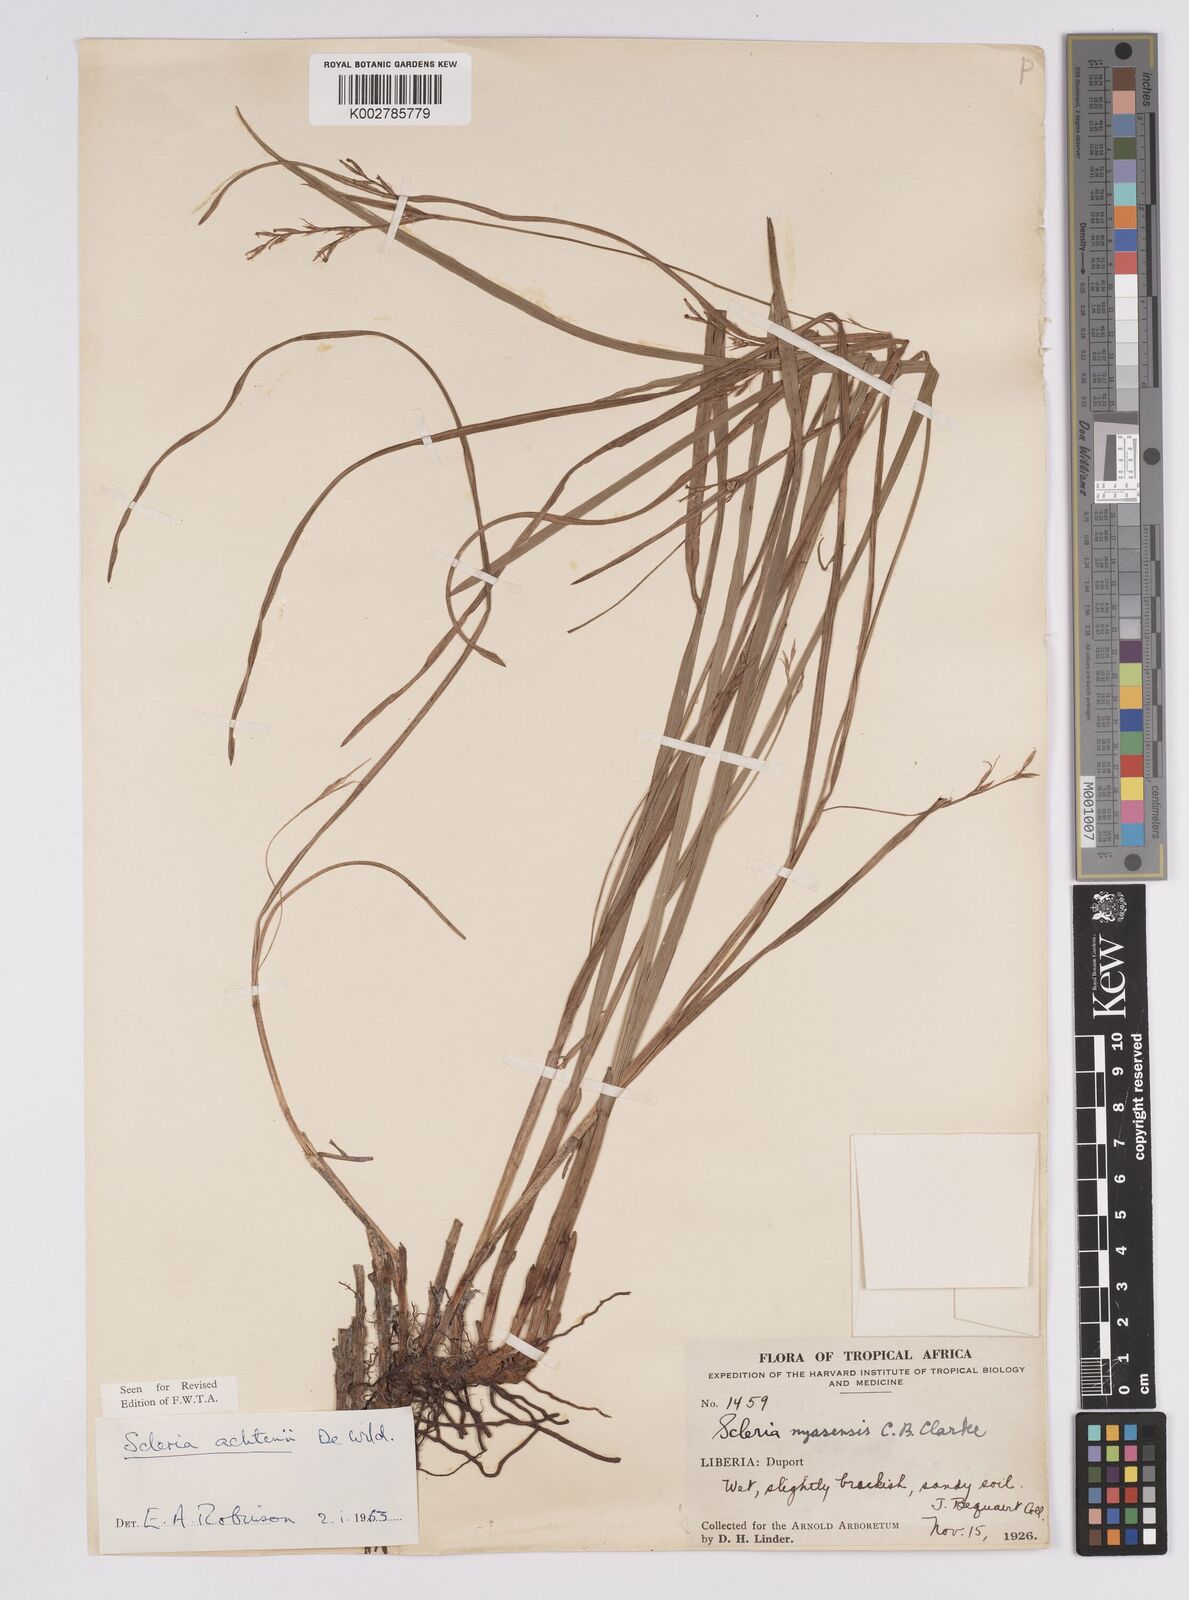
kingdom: Plantae
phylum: Tracheophyta
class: Liliopsida
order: Poales
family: Cyperaceae
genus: Scleria
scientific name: Scleria achtenii
